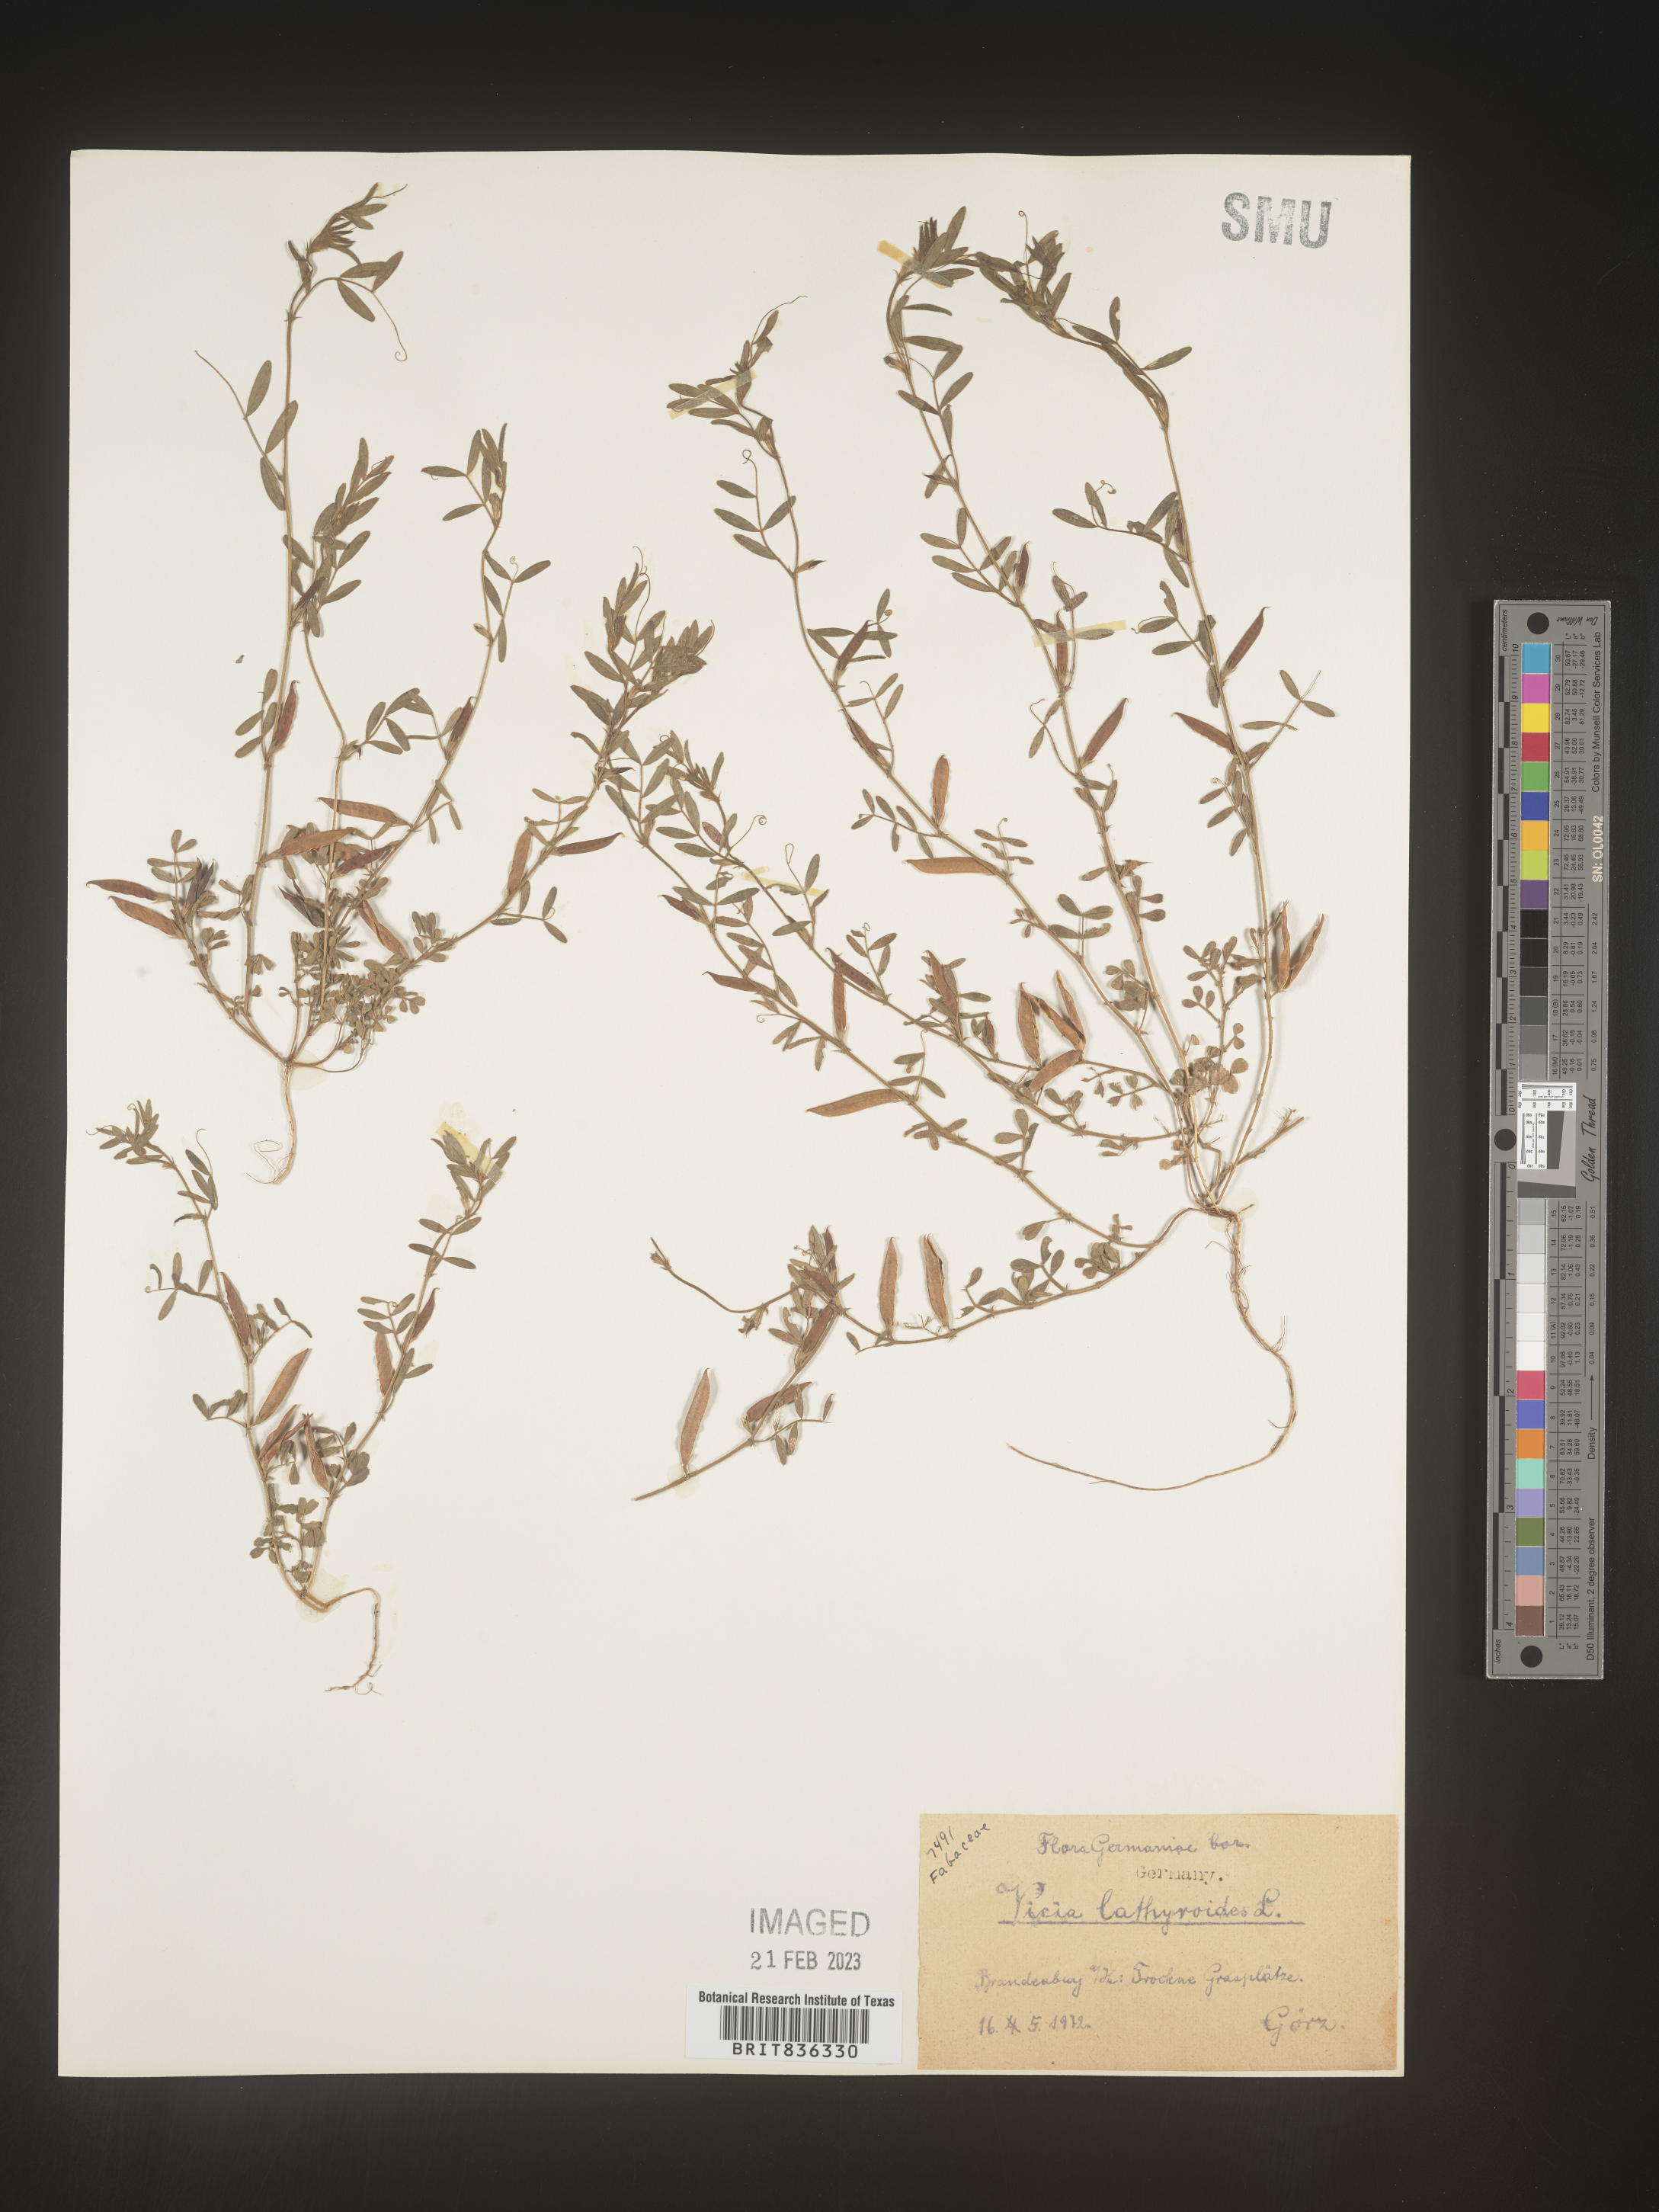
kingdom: Plantae
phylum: Tracheophyta
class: Magnoliopsida
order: Fabales
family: Fabaceae
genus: Vicia
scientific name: Vicia
